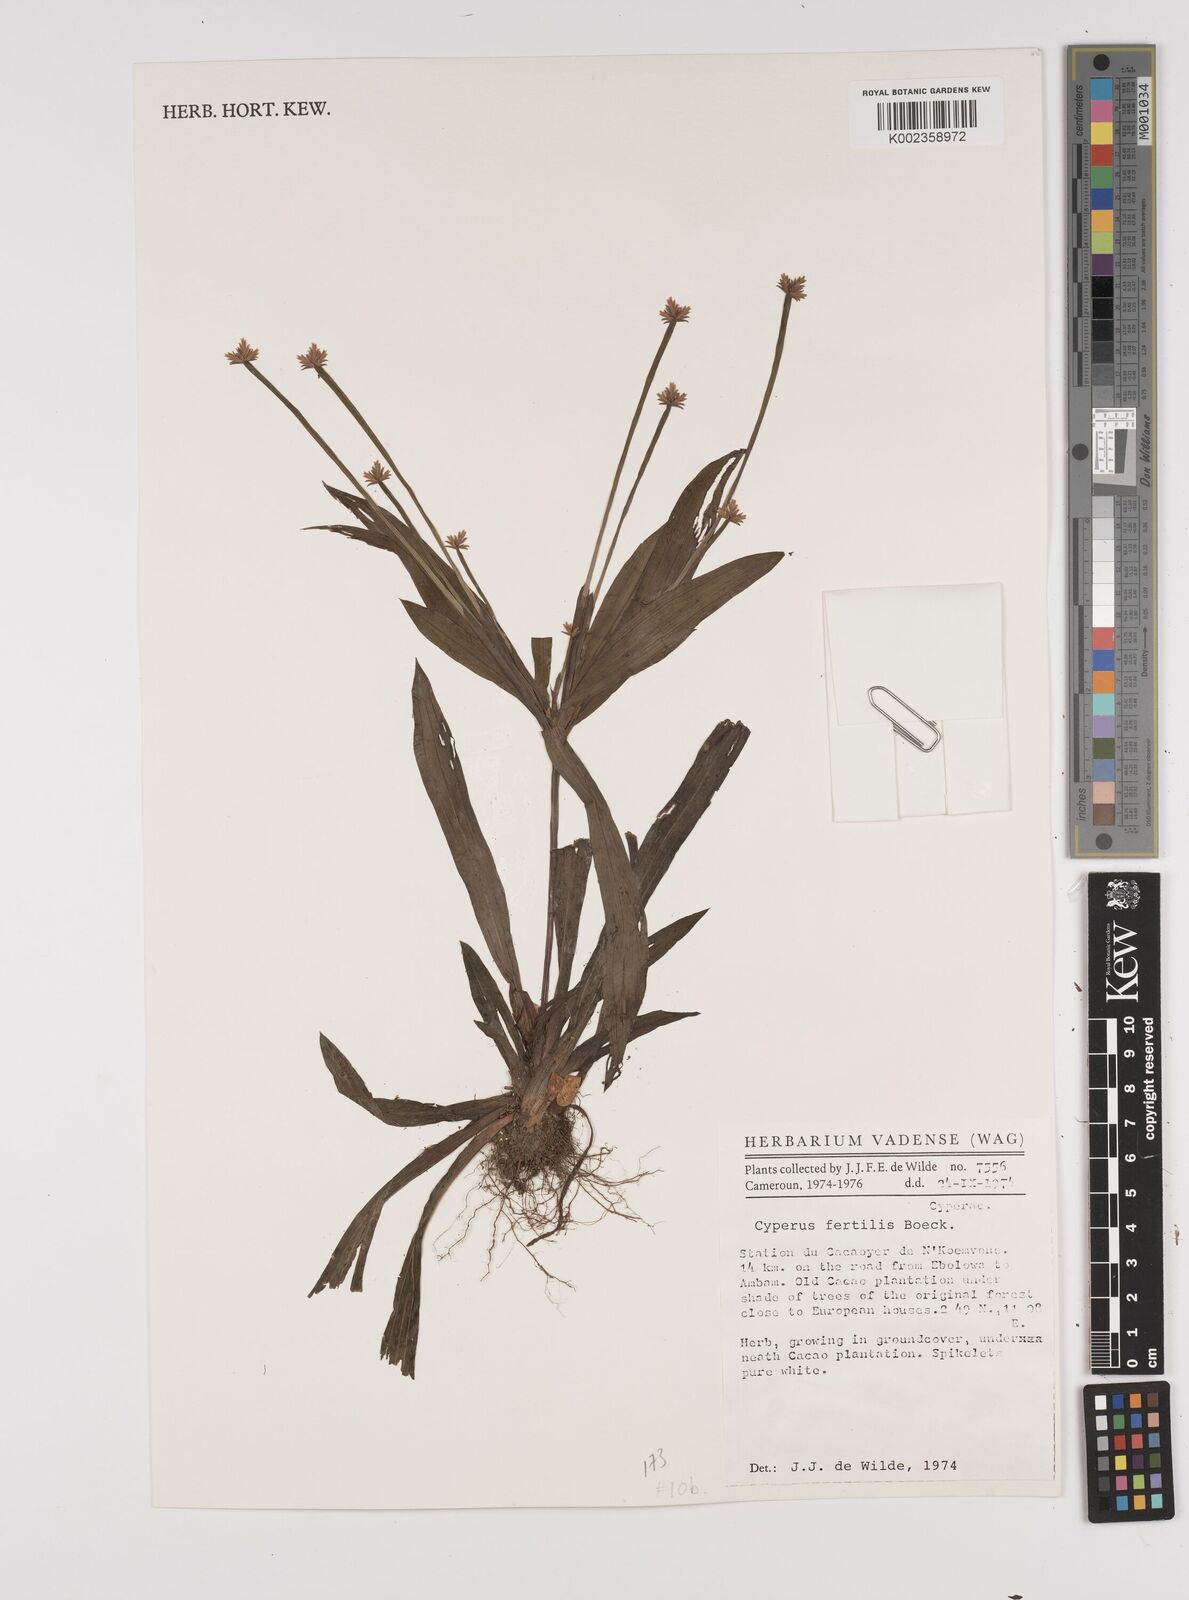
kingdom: Plantae
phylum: Tracheophyta
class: Liliopsida
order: Poales
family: Cyperaceae
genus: Cyperus
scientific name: Cyperus fertilis
